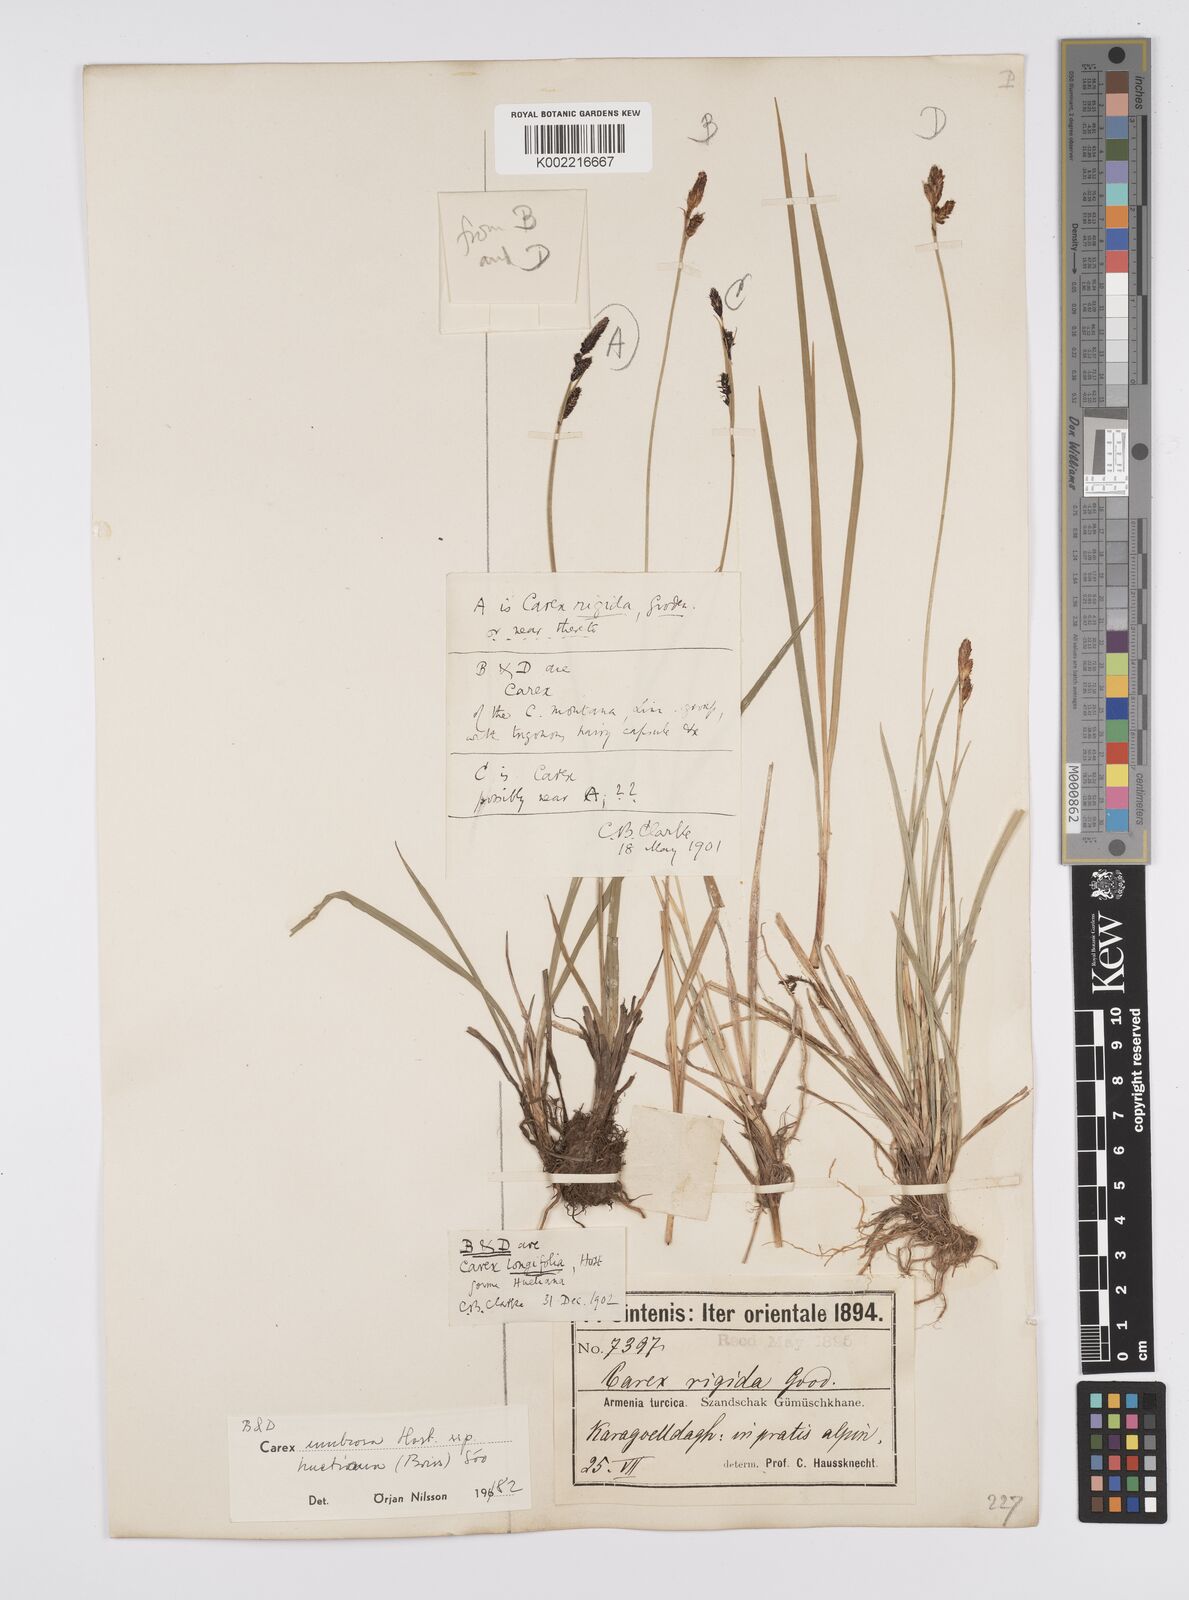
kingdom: Plantae
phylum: Tracheophyta
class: Liliopsida
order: Poales
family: Cyperaceae
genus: Carex
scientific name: Carex
